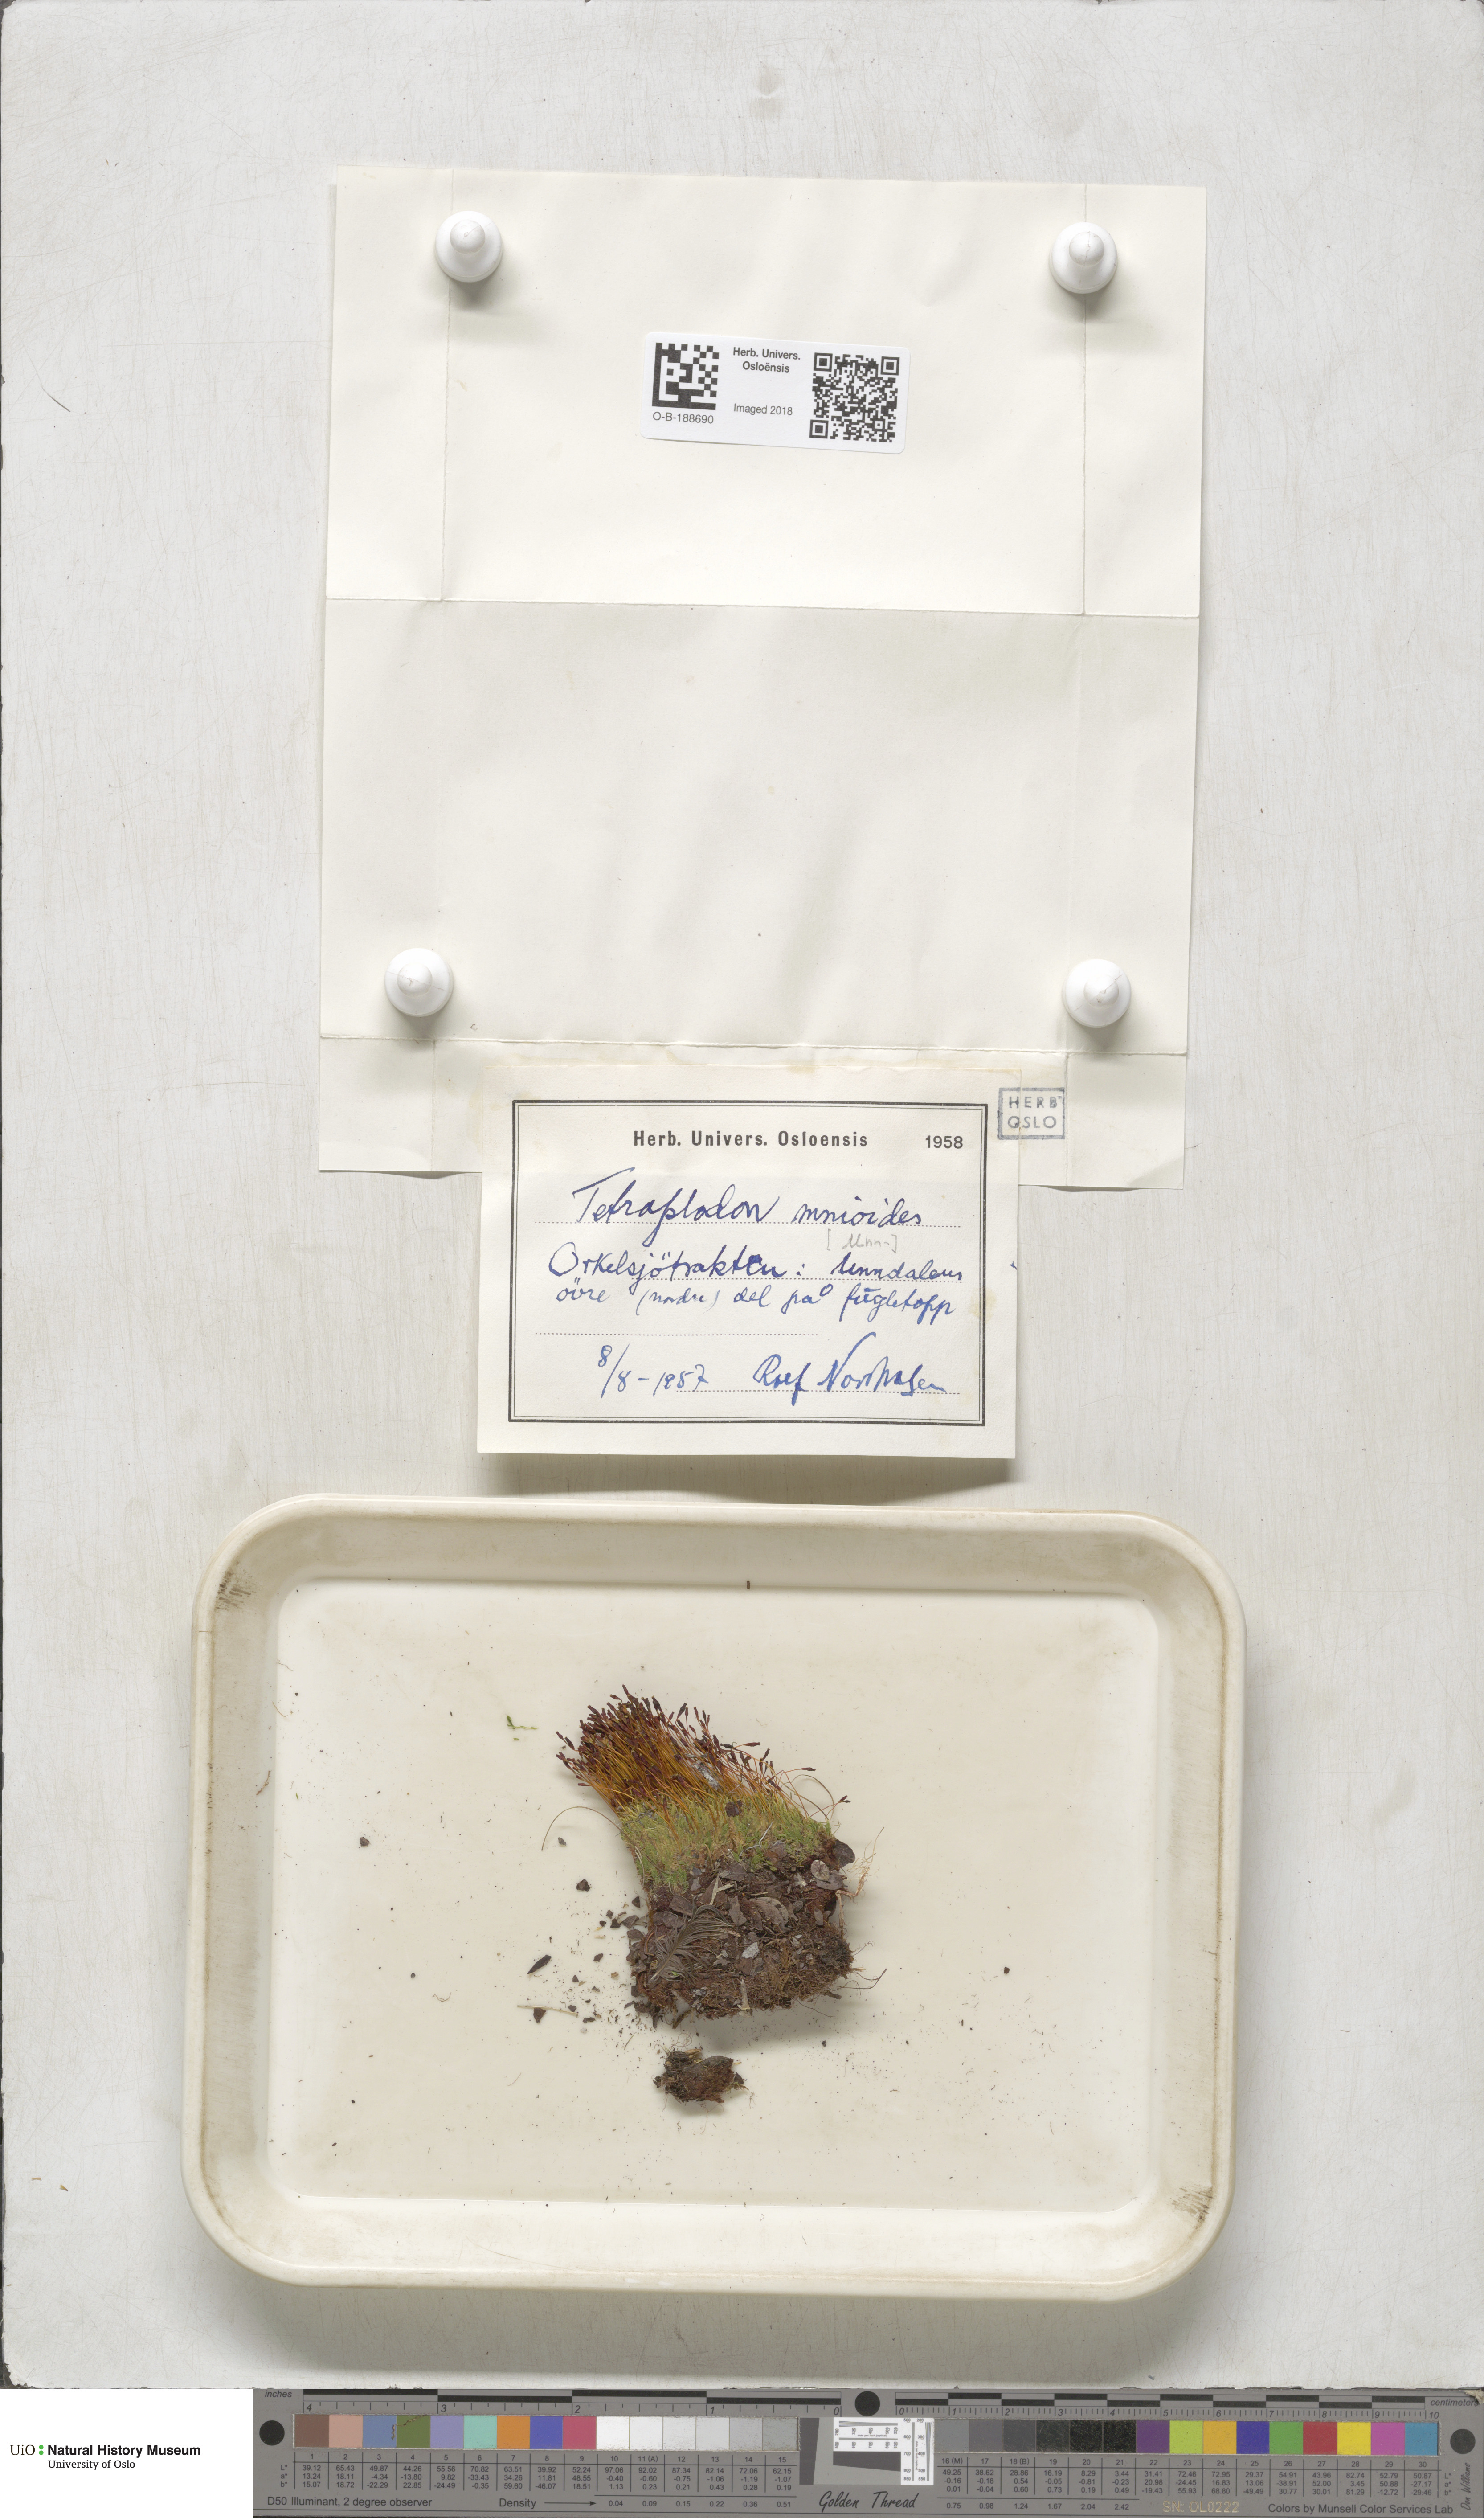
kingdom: Plantae
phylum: Bryophyta
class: Bryopsida
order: Splachnales
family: Splachnaceae
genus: Tetraplodon
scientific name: Tetraplodon mnioides
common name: Entire-leaved nitrogen moss
